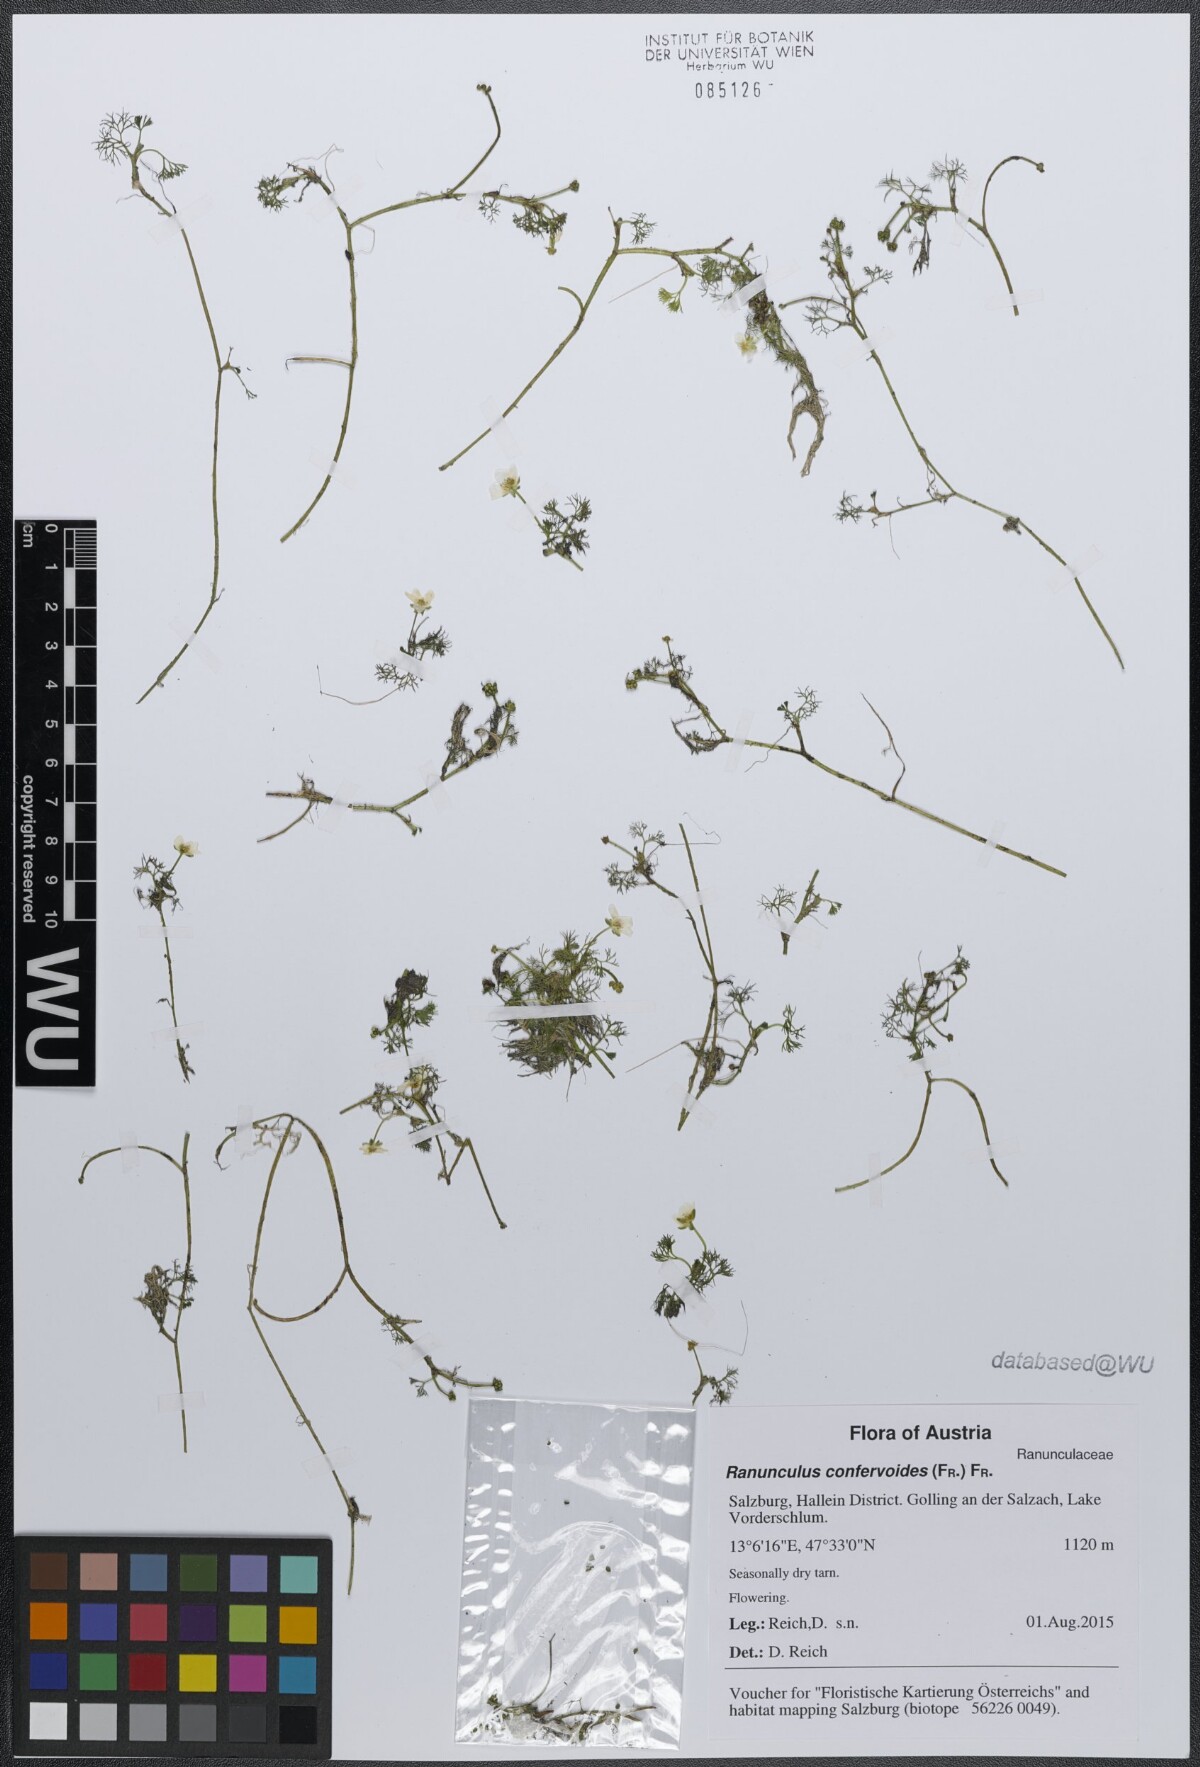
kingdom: Plantae
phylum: Tracheophyta
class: Magnoliopsida
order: Ranunculales
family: Ranunculaceae
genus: Ranunculus
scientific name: Ranunculus confervoides
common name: Delicate buttercup
